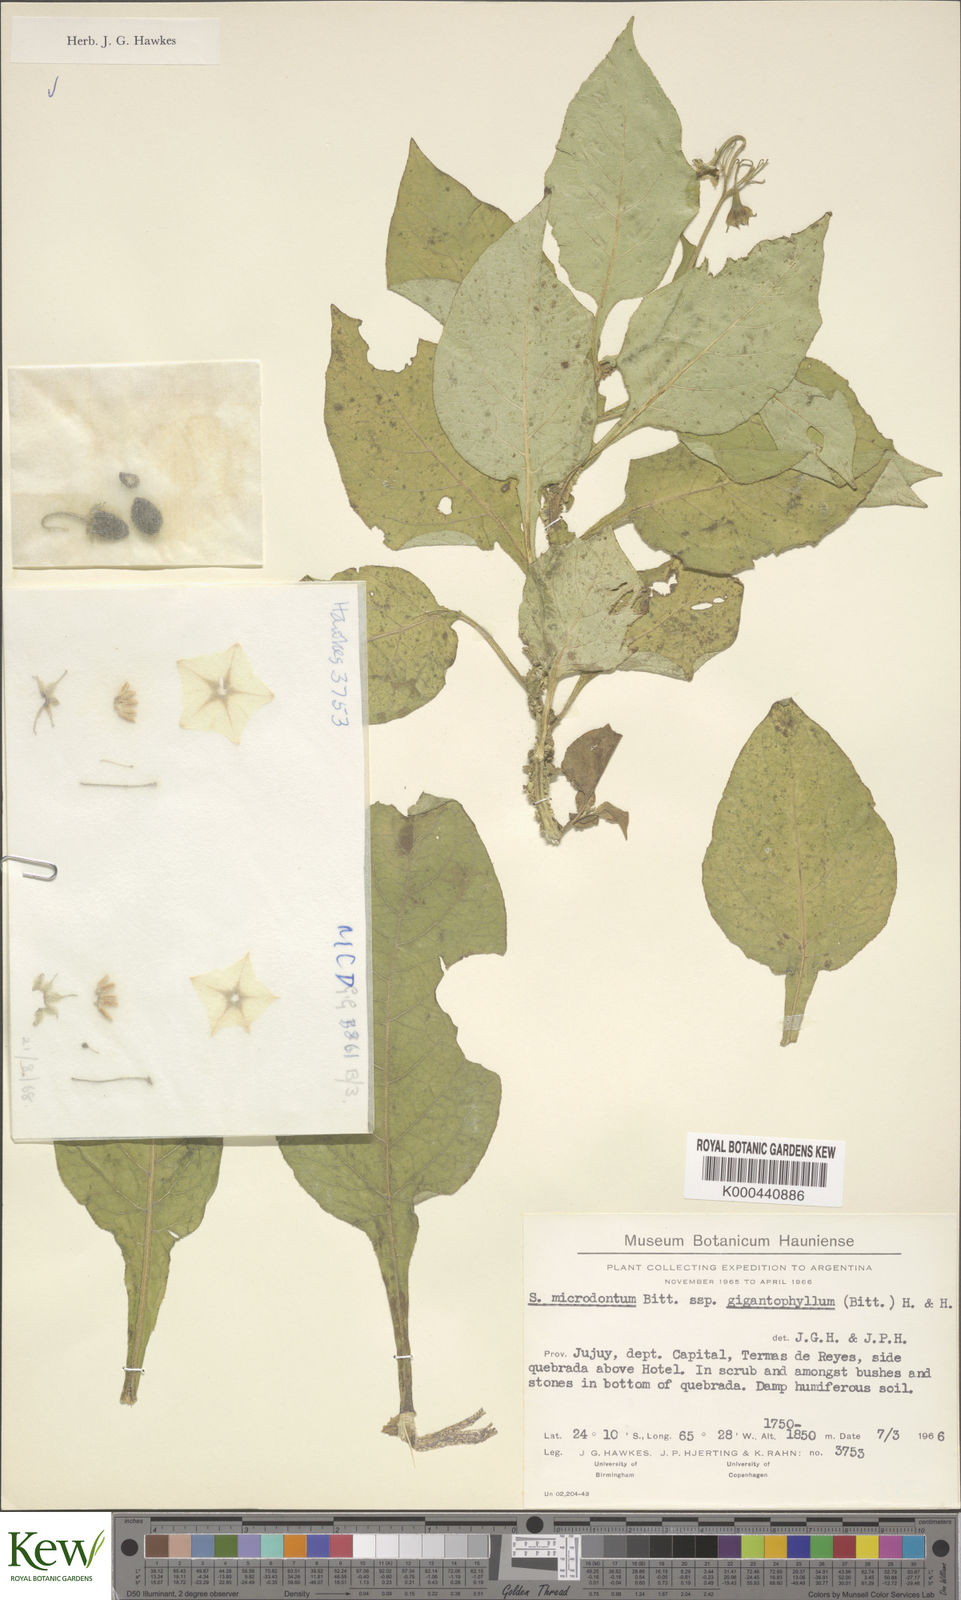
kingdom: Plantae
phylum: Tracheophyta
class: Magnoliopsida
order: Solanales
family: Solanaceae
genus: Solanum
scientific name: Solanum microdontum
